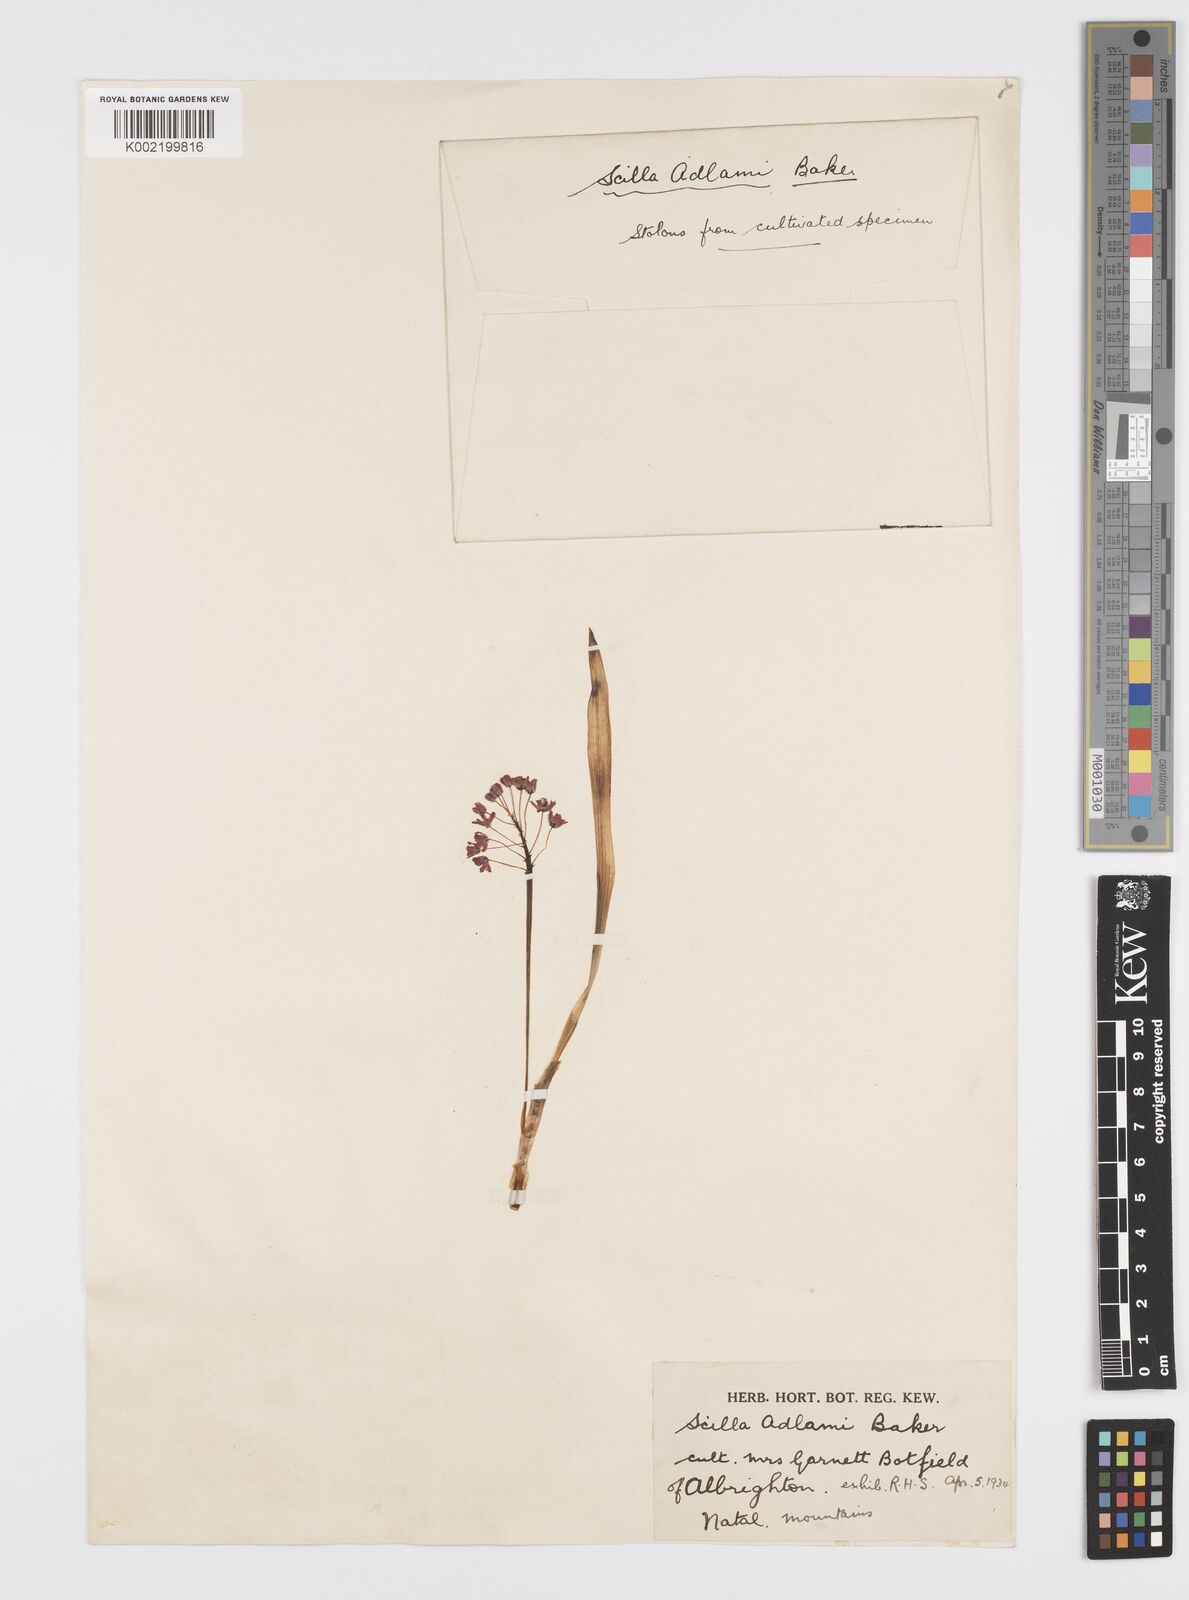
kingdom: Plantae
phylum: Tracheophyta
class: Liliopsida
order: Asparagales
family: Asparagaceae
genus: Ledebouria
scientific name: Ledebouria cooperi
